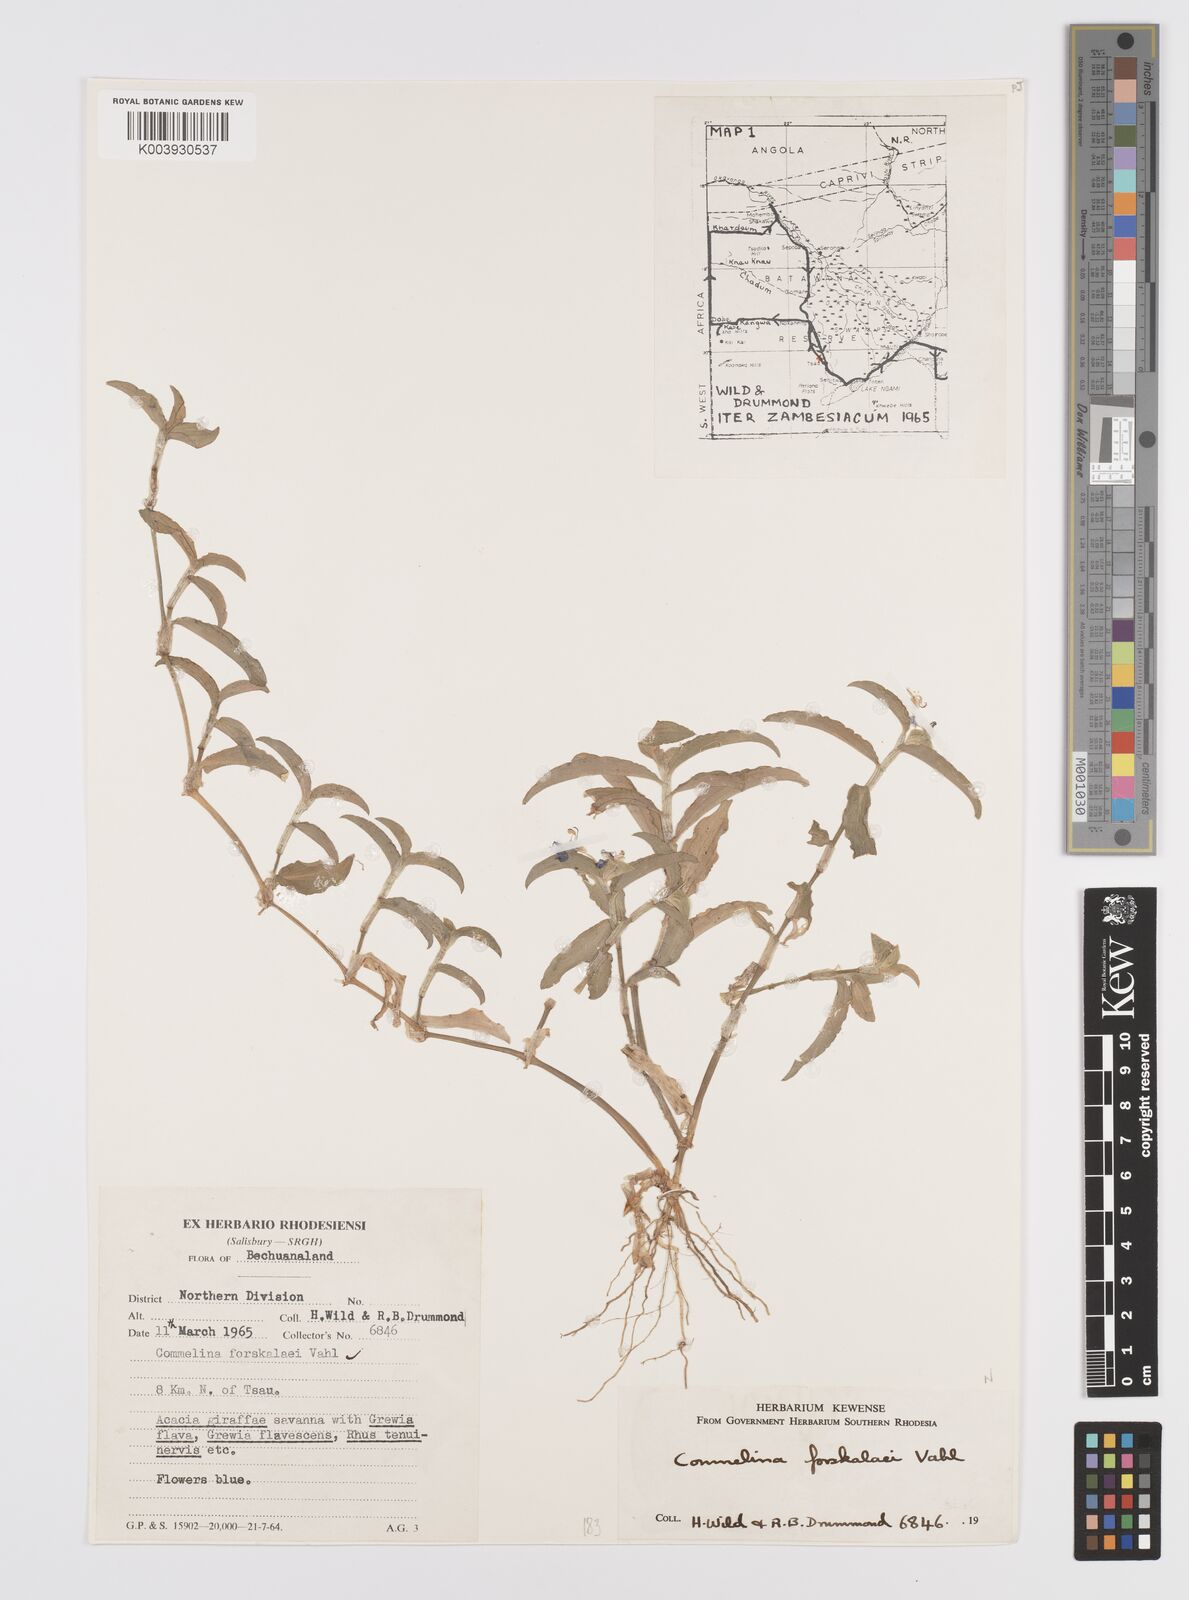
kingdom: Plantae
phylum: Tracheophyta
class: Liliopsida
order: Commelinales
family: Commelinaceae
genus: Commelina
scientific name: Commelina forskaolii
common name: Rat's ear
